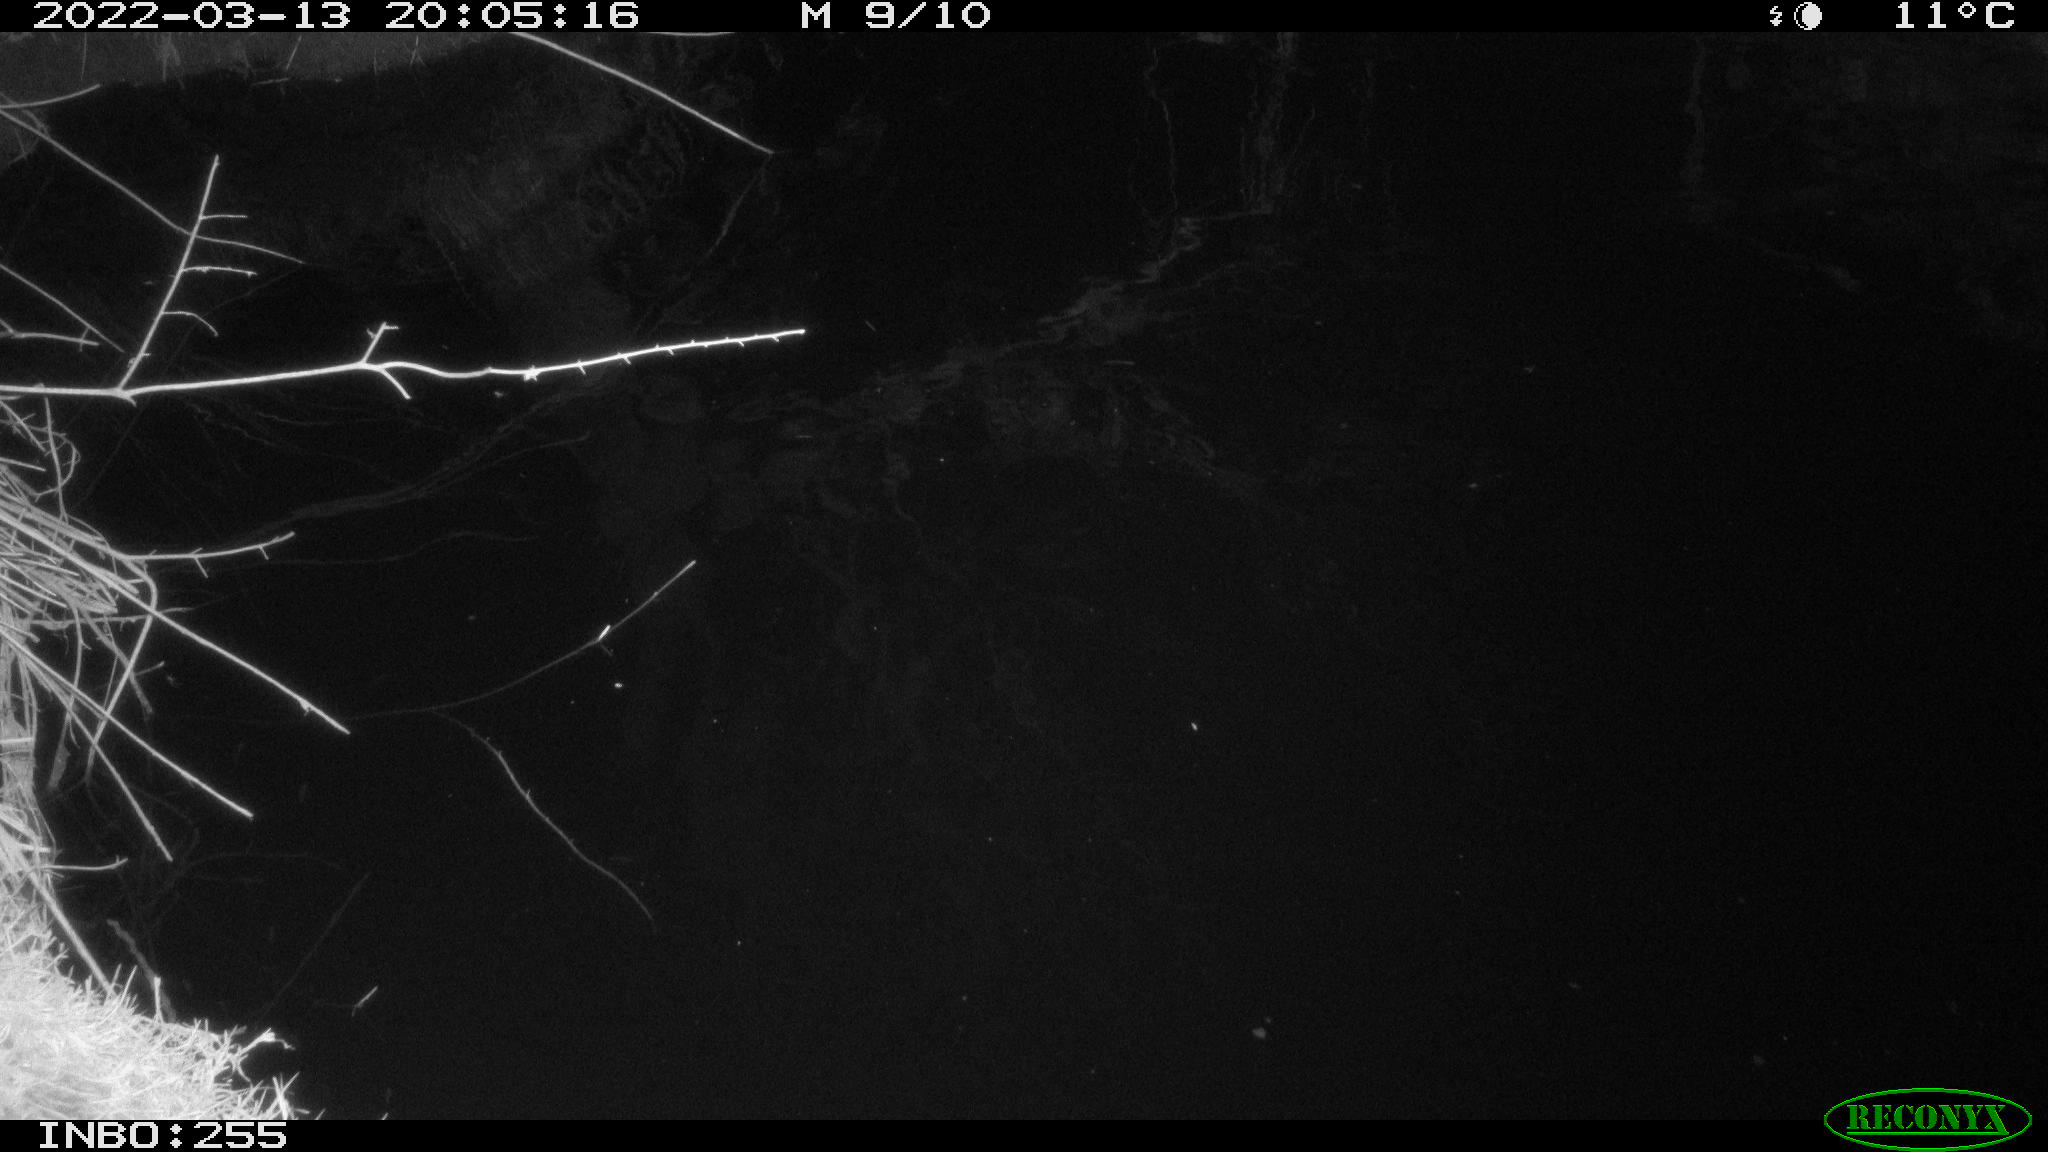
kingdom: Animalia
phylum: Chordata
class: Aves
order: Anseriformes
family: Anatidae
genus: Anas
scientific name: Anas platyrhynchos
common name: Mallard
